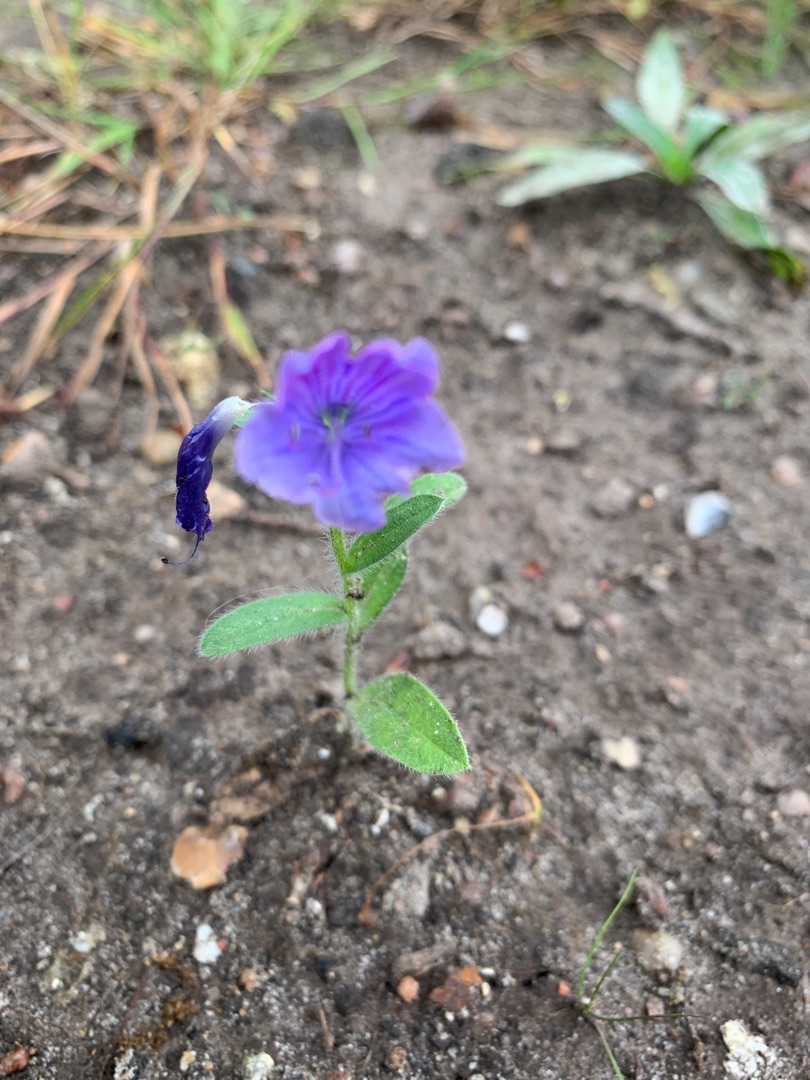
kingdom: Plantae
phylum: Tracheophyta
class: Magnoliopsida
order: Boraginales
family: Boraginaceae
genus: Echium
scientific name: Echium plantagineum
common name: Vejbred-slangehoved
